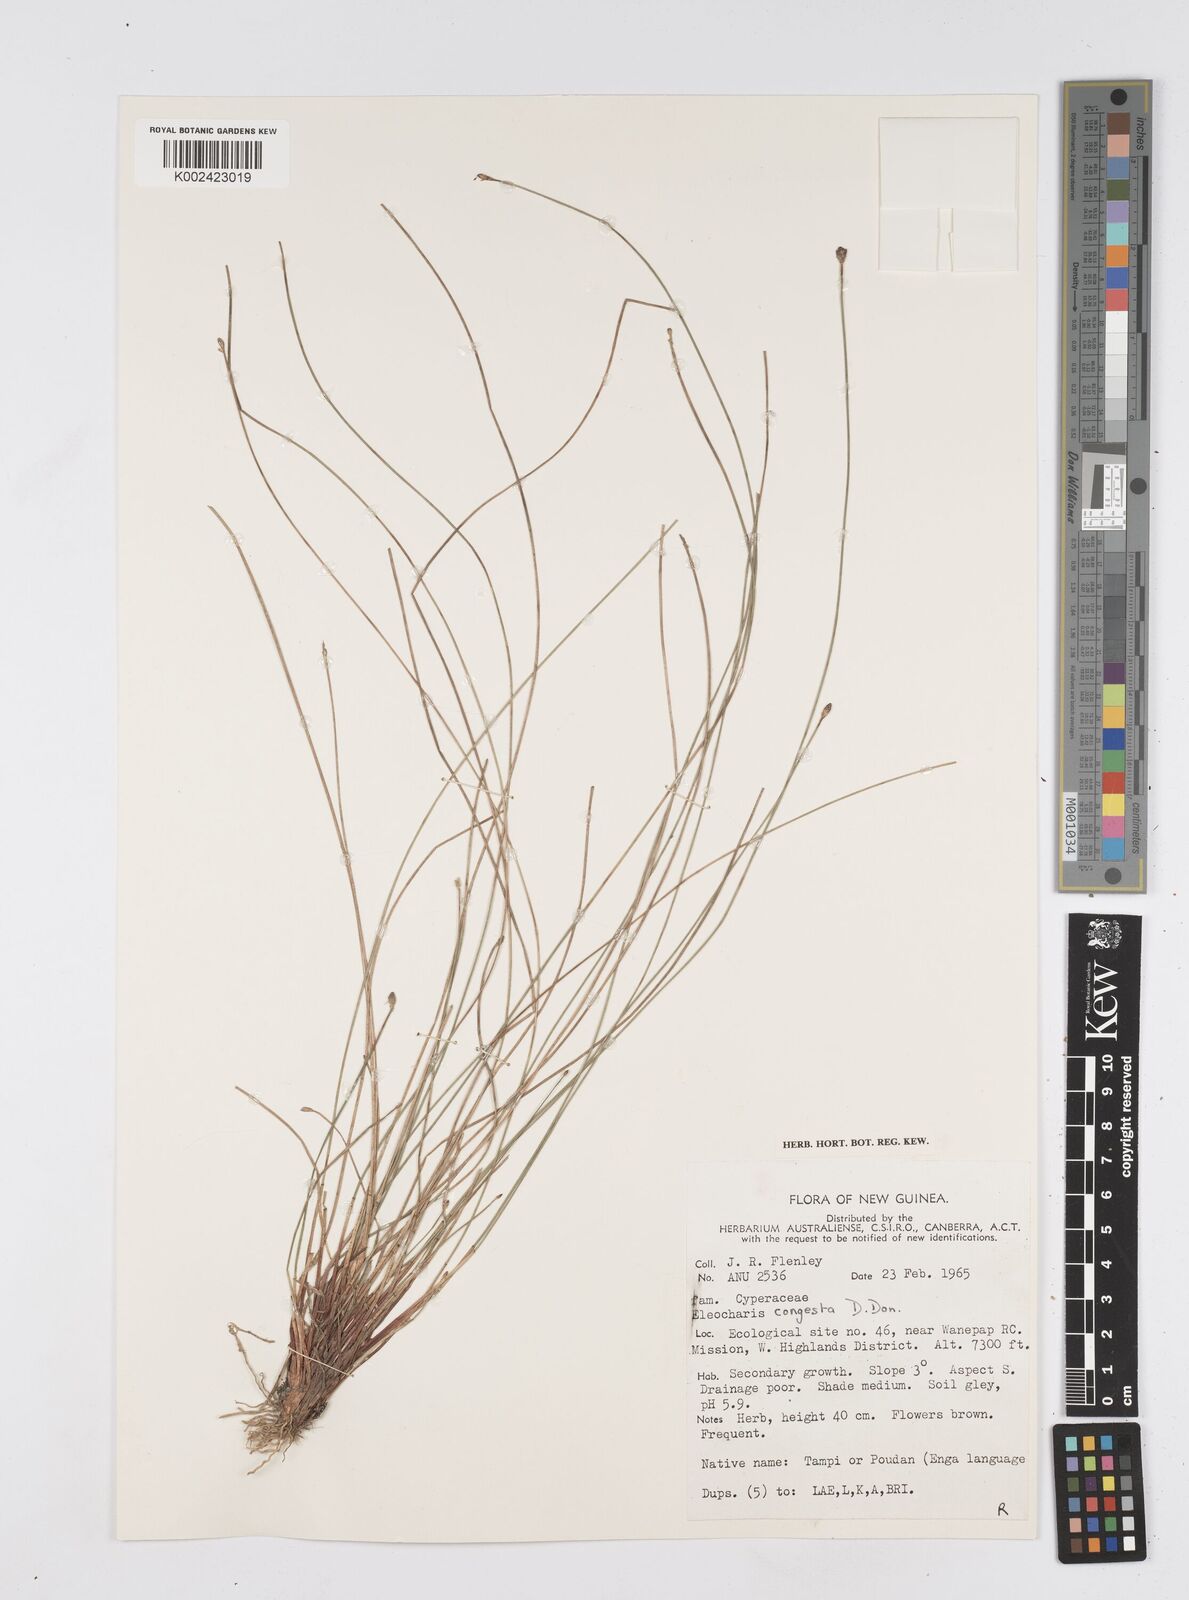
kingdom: Plantae
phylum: Tracheophyta
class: Liliopsida
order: Poales
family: Cyperaceae
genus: Eleocharis
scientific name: Eleocharis congesta
